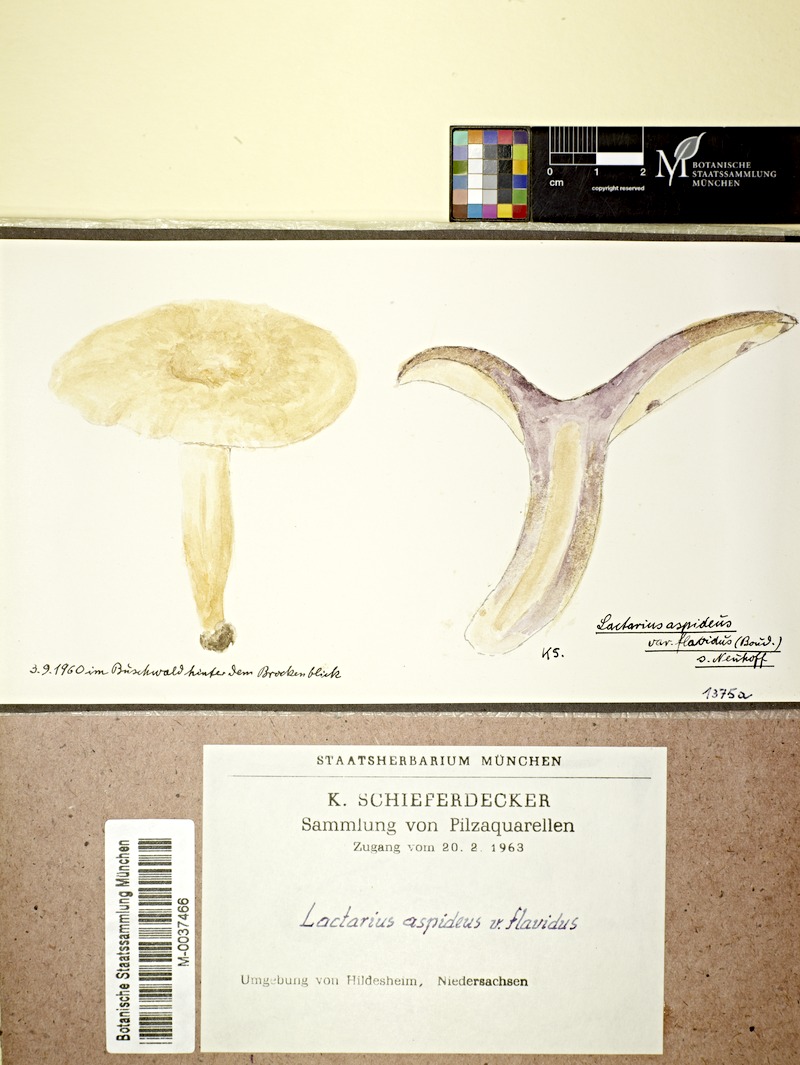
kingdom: Fungi
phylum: Basidiomycota
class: Agaricomycetes
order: Russulales
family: Russulaceae
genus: Lactarius
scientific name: Lactarius flavidus
